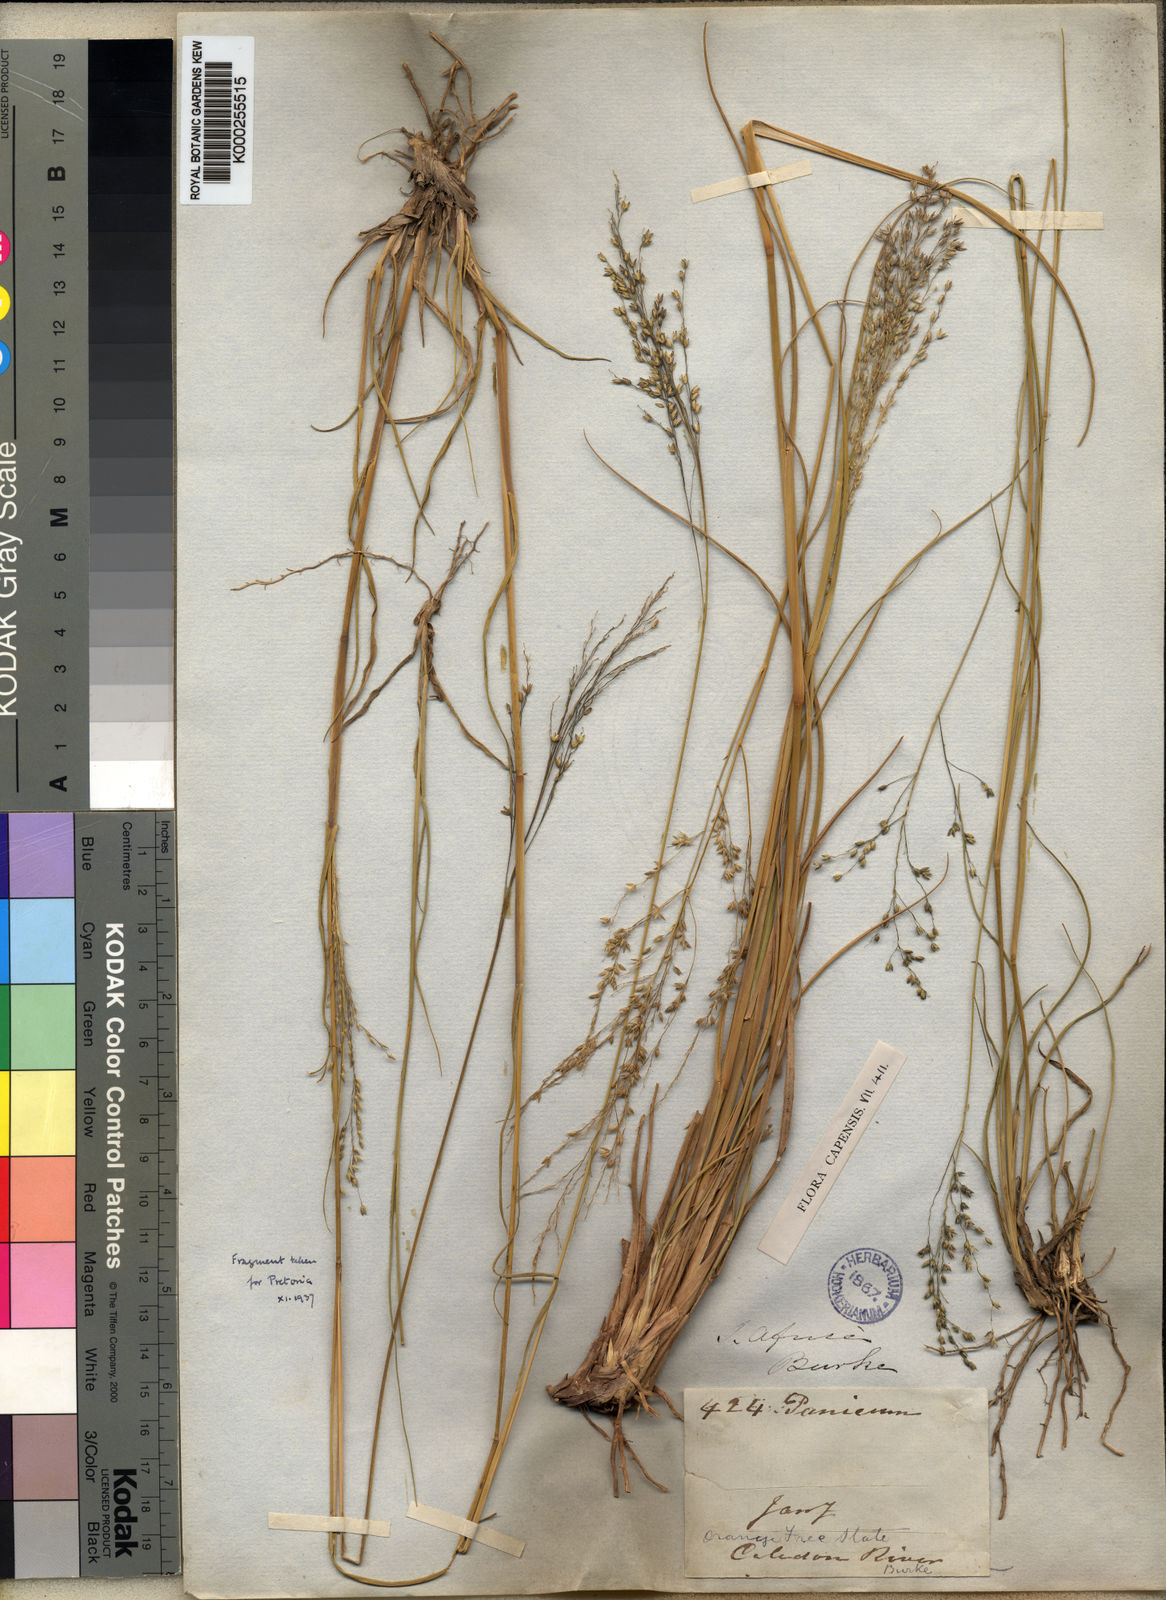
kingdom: Plantae
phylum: Tracheophyta
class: Liliopsida
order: Poales
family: Poaceae
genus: Panicum
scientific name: Panicum stapfianum
